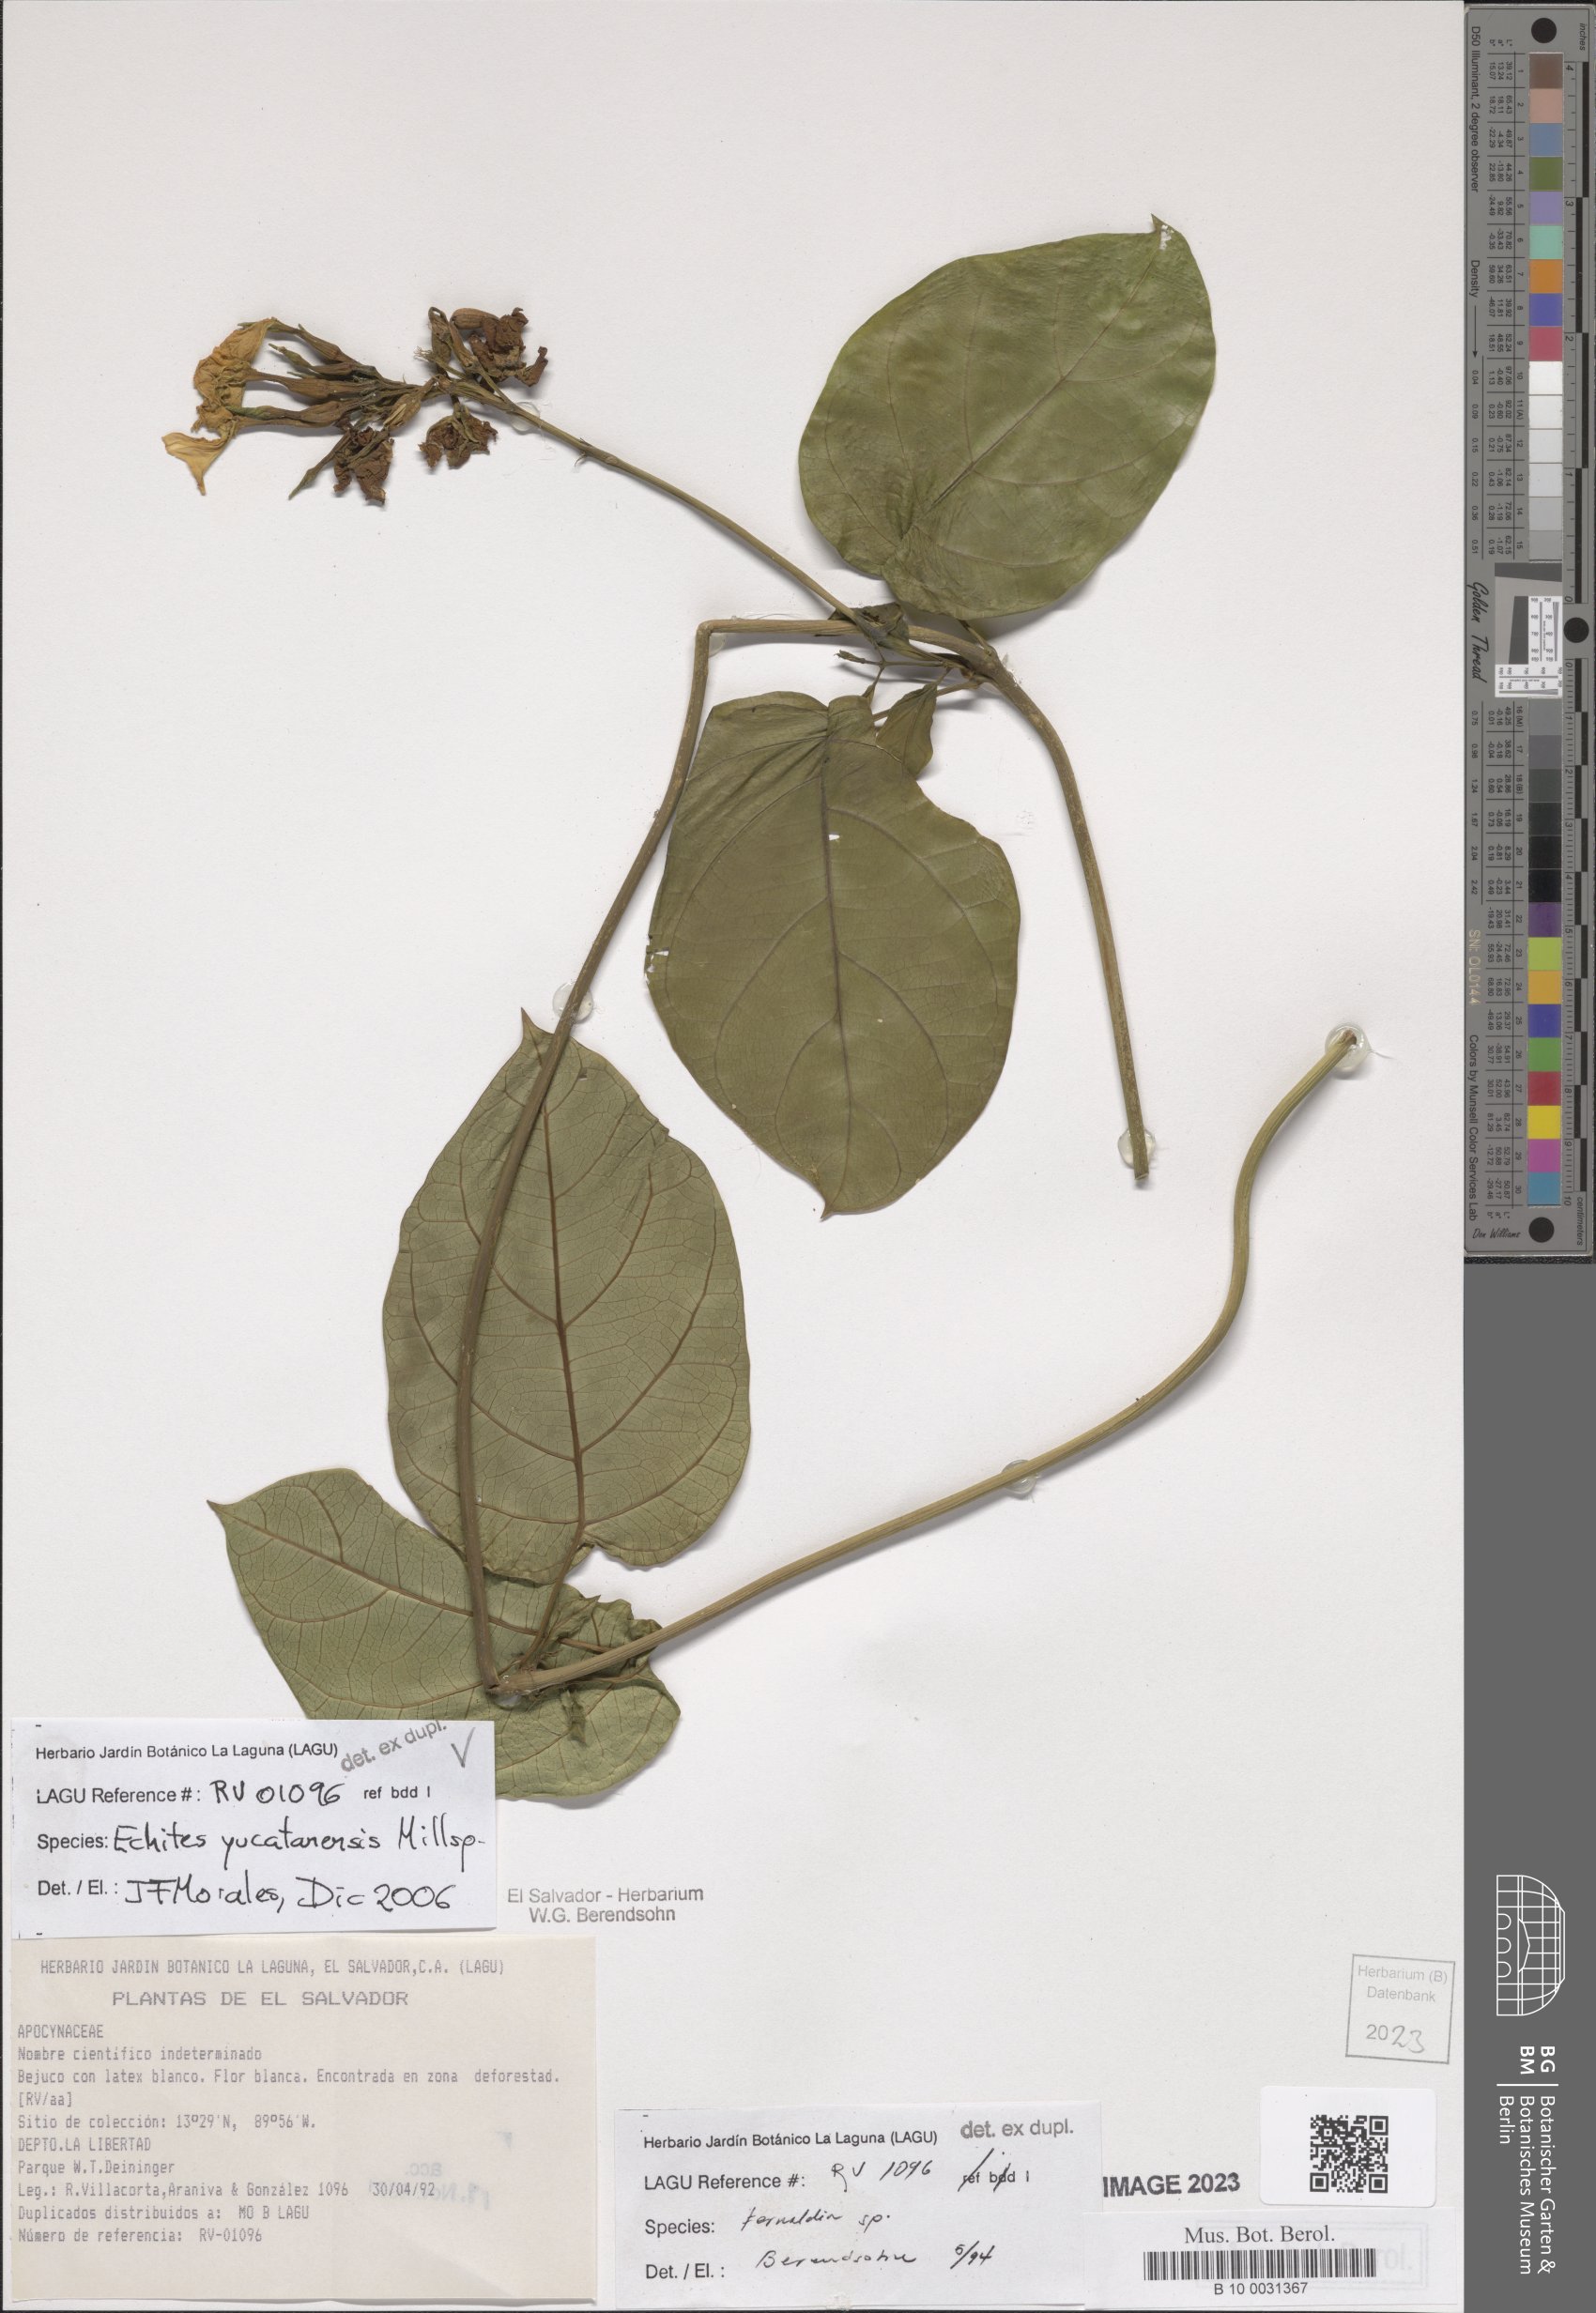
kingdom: Plantae
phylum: Tracheophyta
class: Magnoliopsida
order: Gentianales
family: Apocynaceae
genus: Echites
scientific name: Echites yucatanensis
